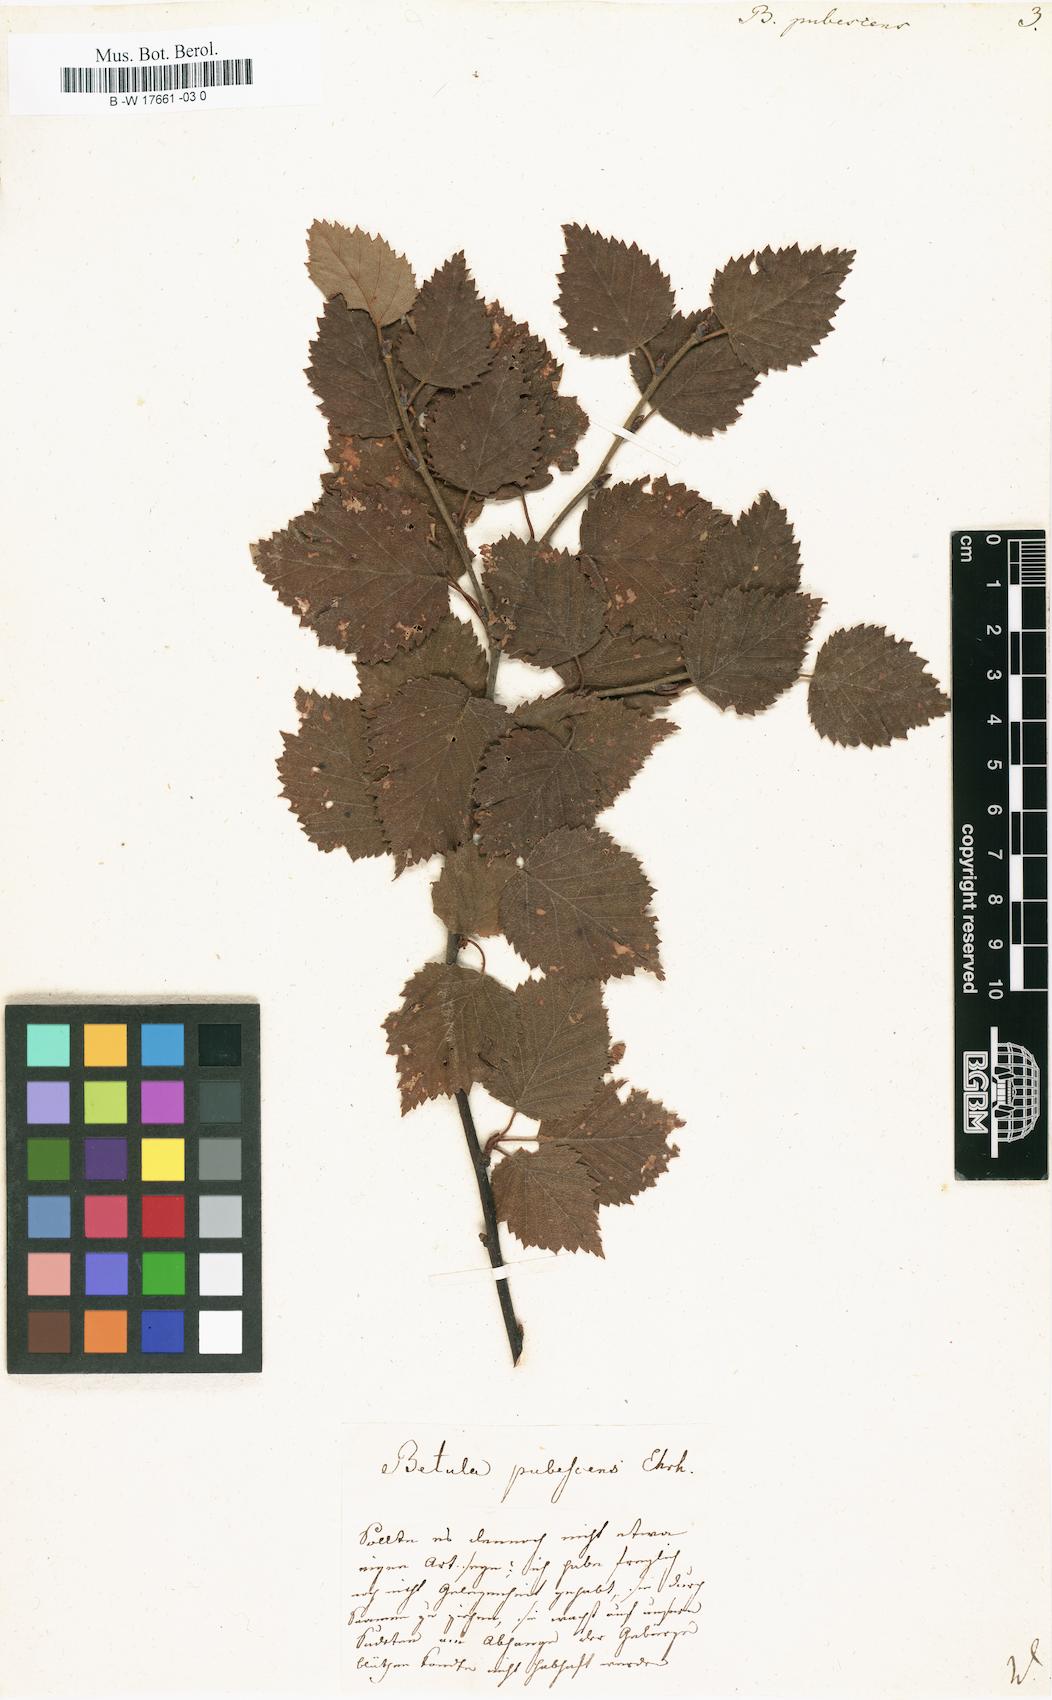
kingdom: Plantae
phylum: Tracheophyta
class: Magnoliopsida
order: Fagales
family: Betulaceae
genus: Betula
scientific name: Betula pubescens
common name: Downy birch
